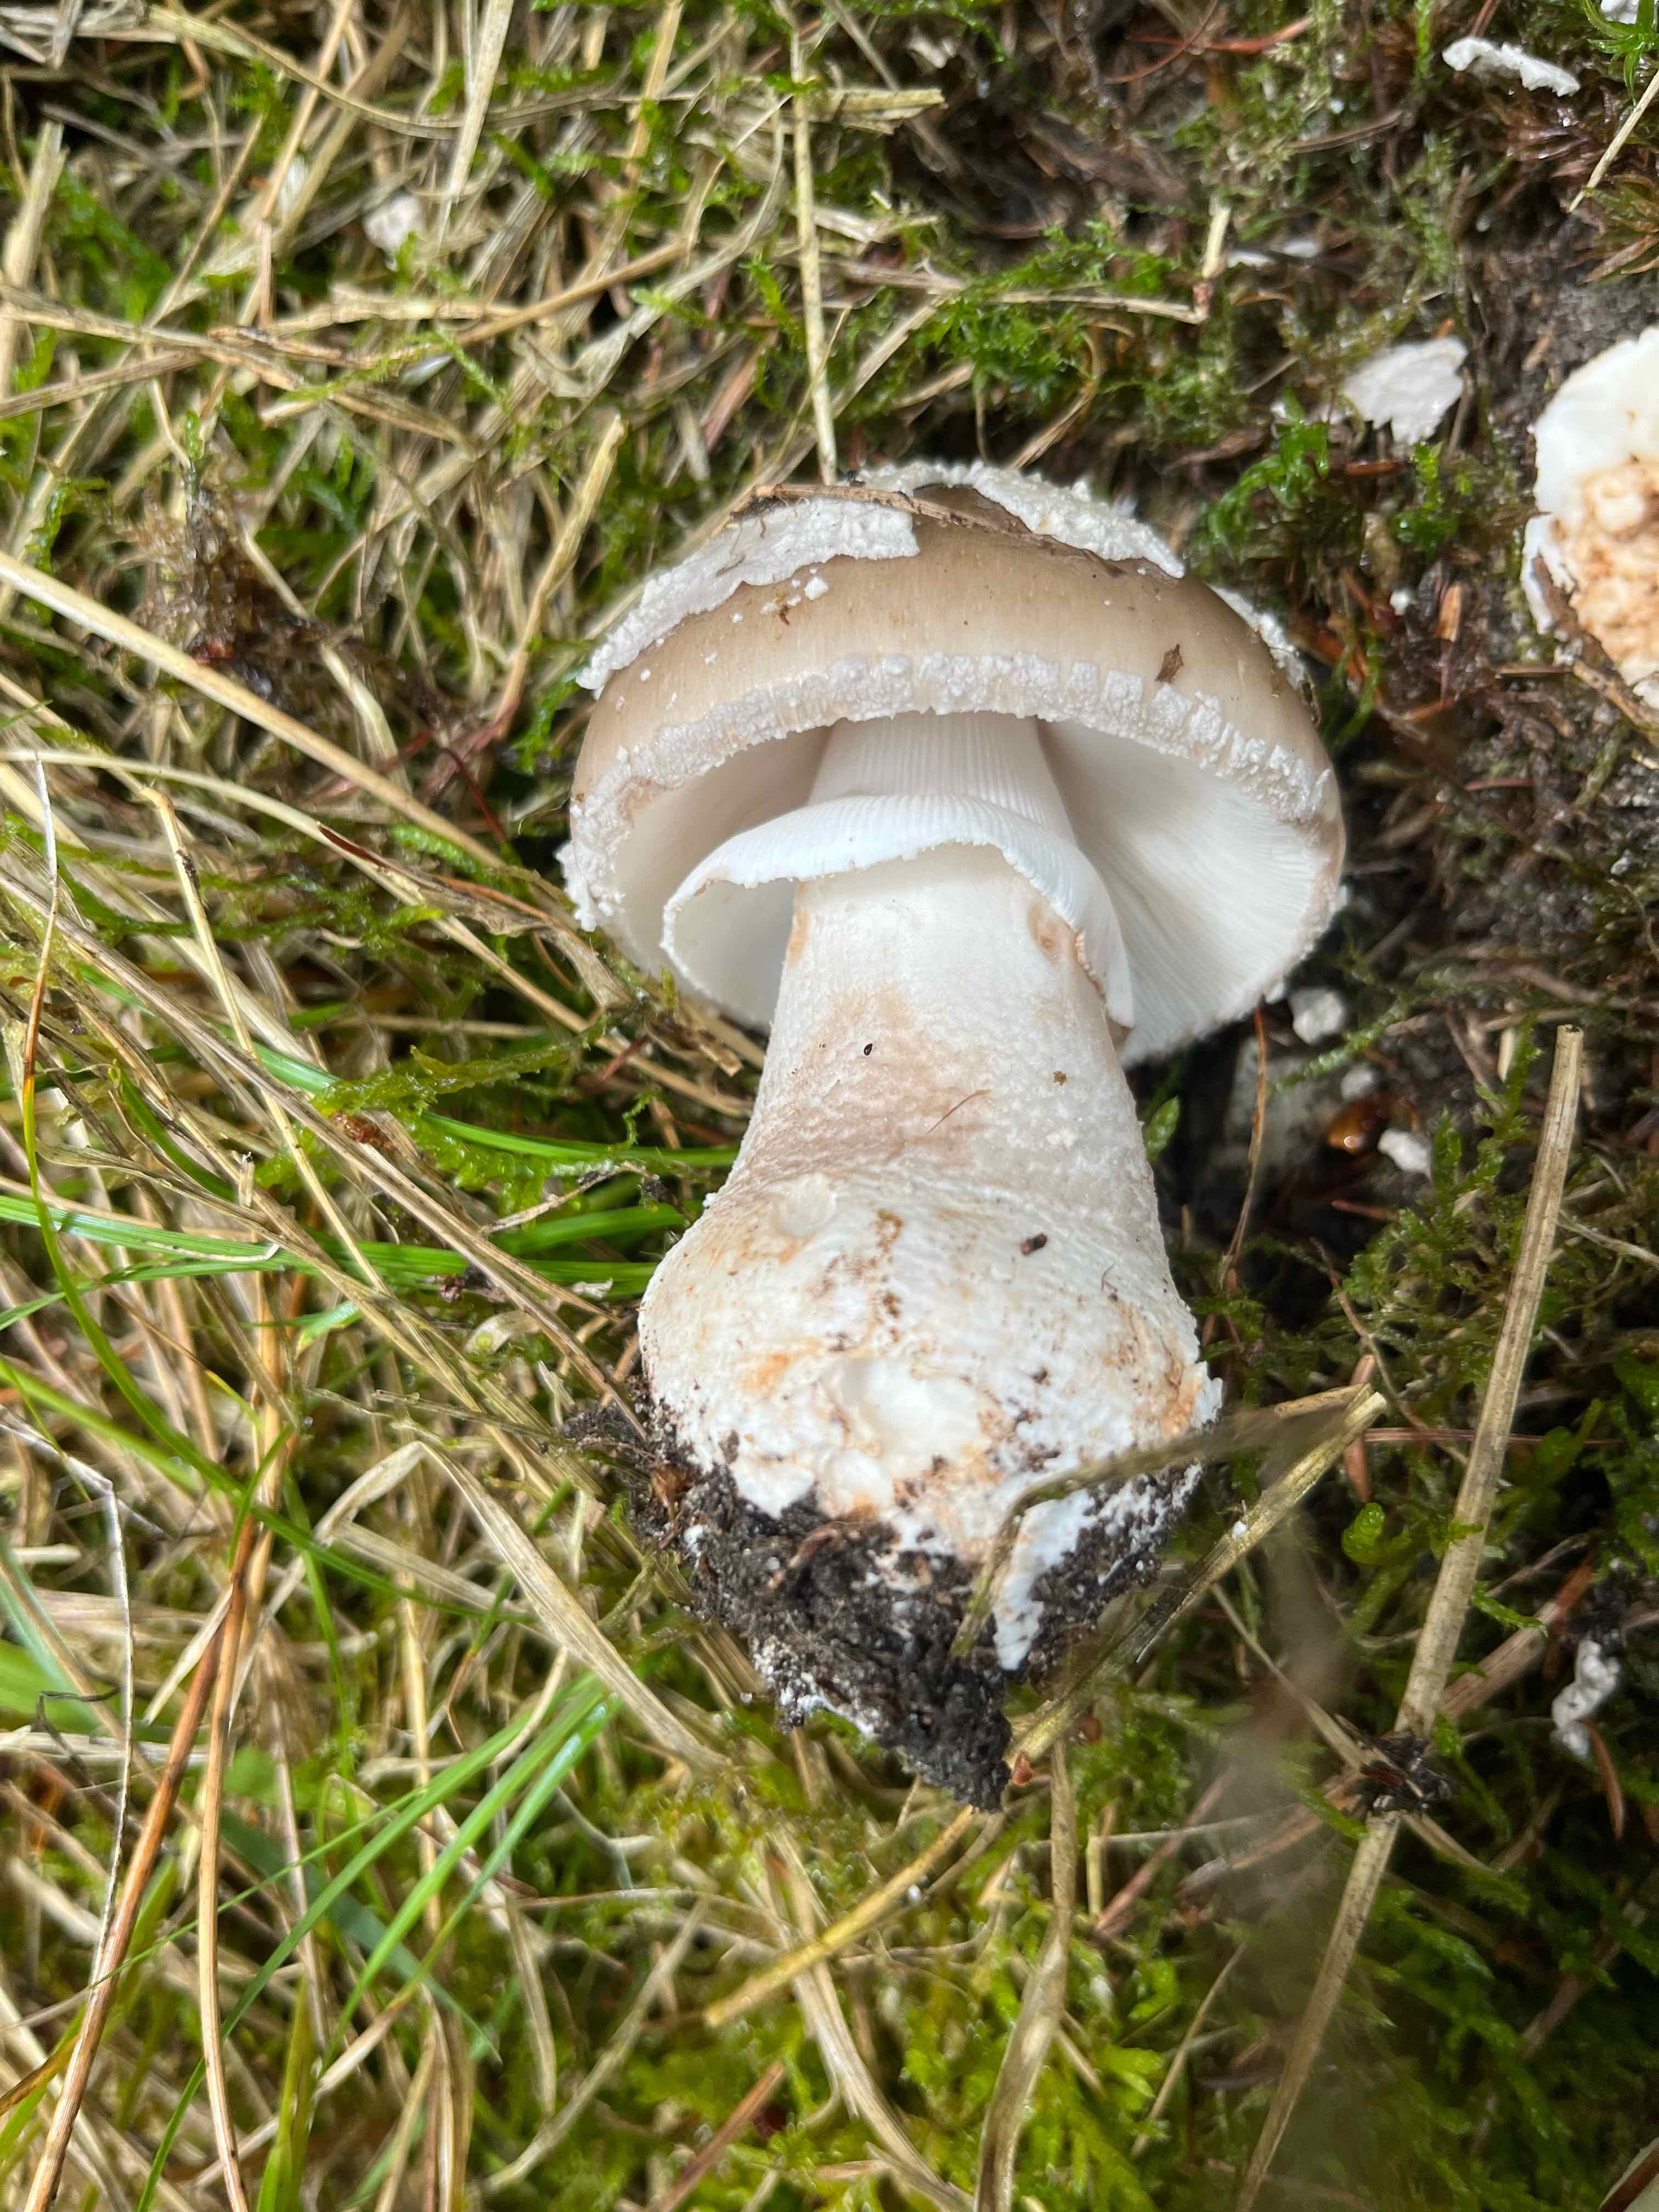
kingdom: Fungi
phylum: Basidiomycota
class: Agaricomycetes
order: Agaricales
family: Amanitaceae
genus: Amanita
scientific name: Amanita
